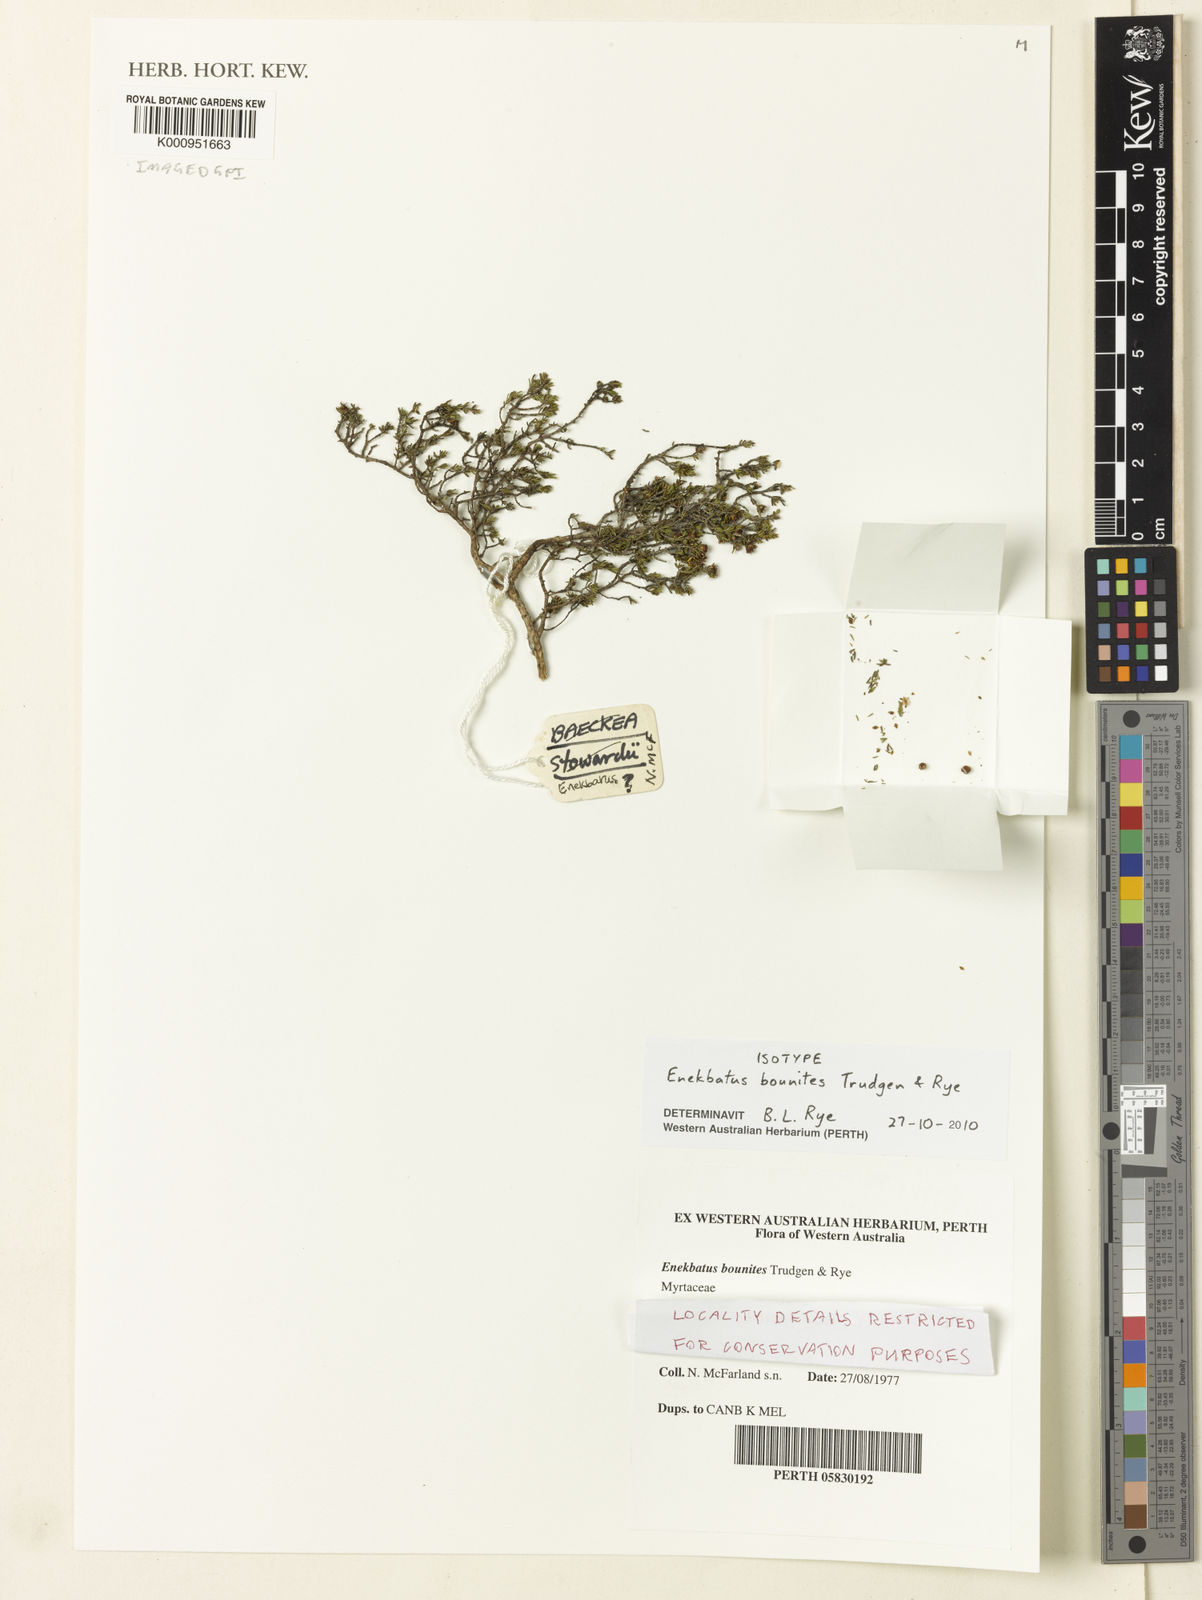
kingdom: Plantae
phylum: Tracheophyta
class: Magnoliopsida
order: Myrtales
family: Myrtaceae
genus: Enekbatus
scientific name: Enekbatus bounites
